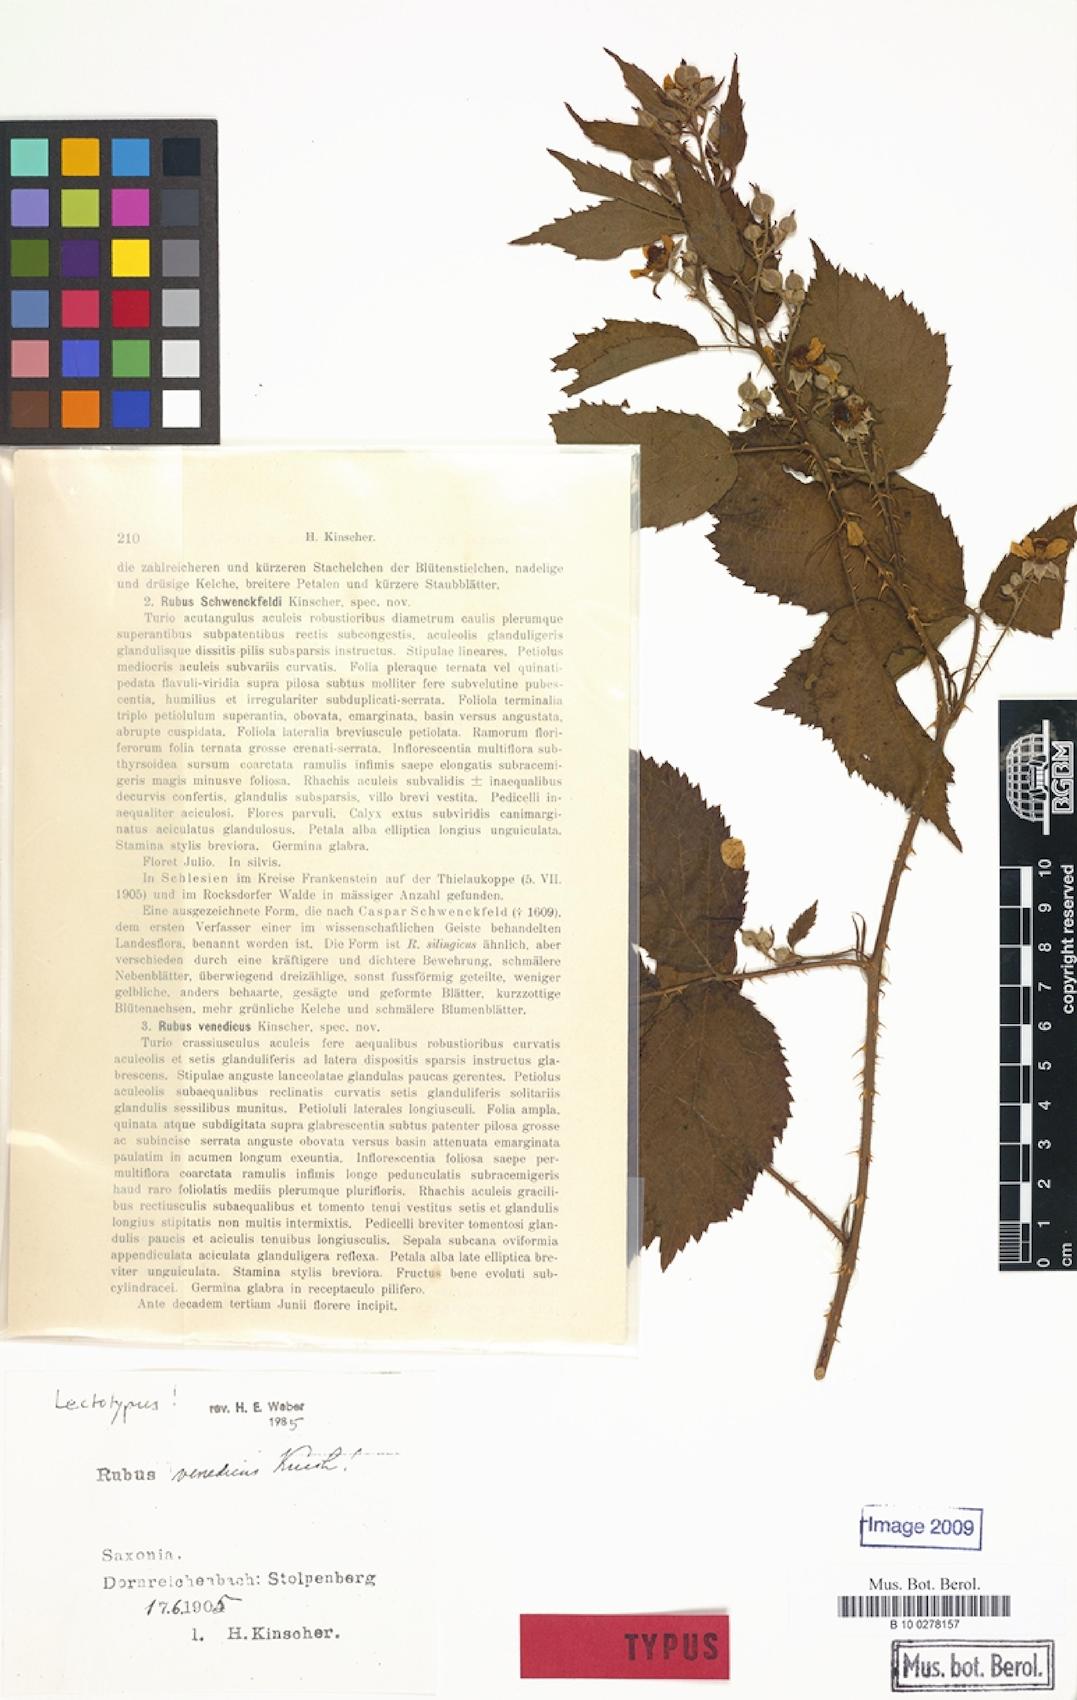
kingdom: Plantae
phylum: Tracheophyta
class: Magnoliopsida
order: Rosales
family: Rosaceae
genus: Rubus
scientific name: Rubus tabanimontanus
